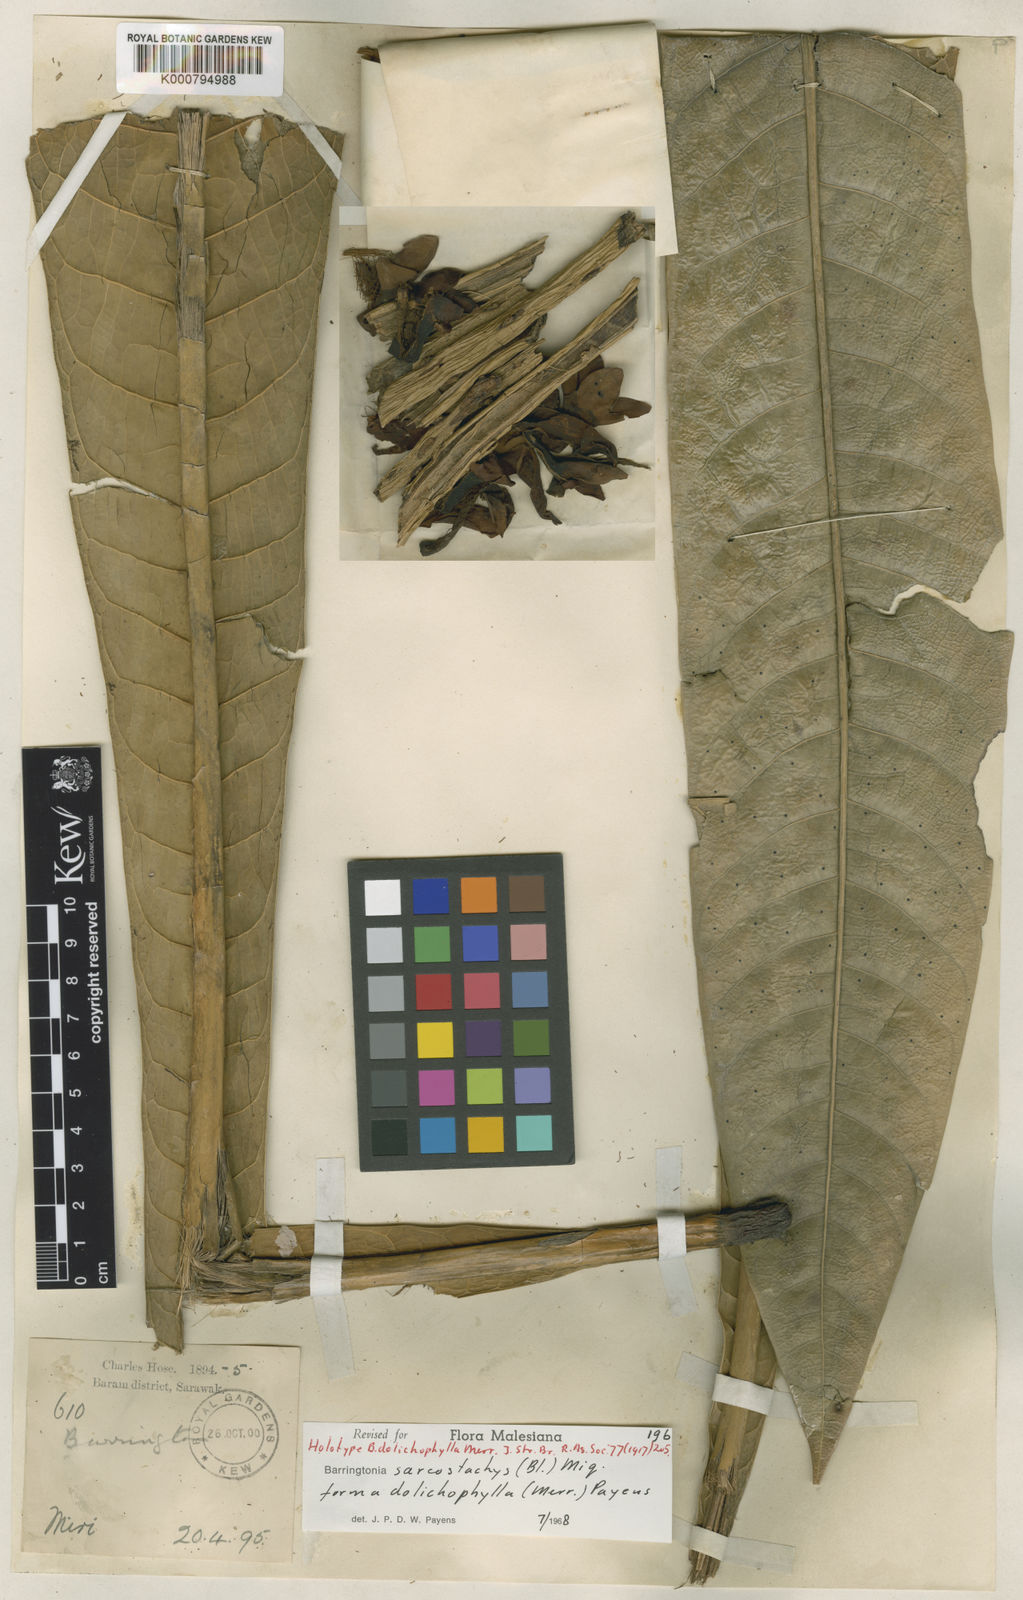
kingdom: Plantae
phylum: Tracheophyta
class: Magnoliopsida
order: Ericales
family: Lecythidaceae
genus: Barringtonia
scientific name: Barringtonia sarcostachys
